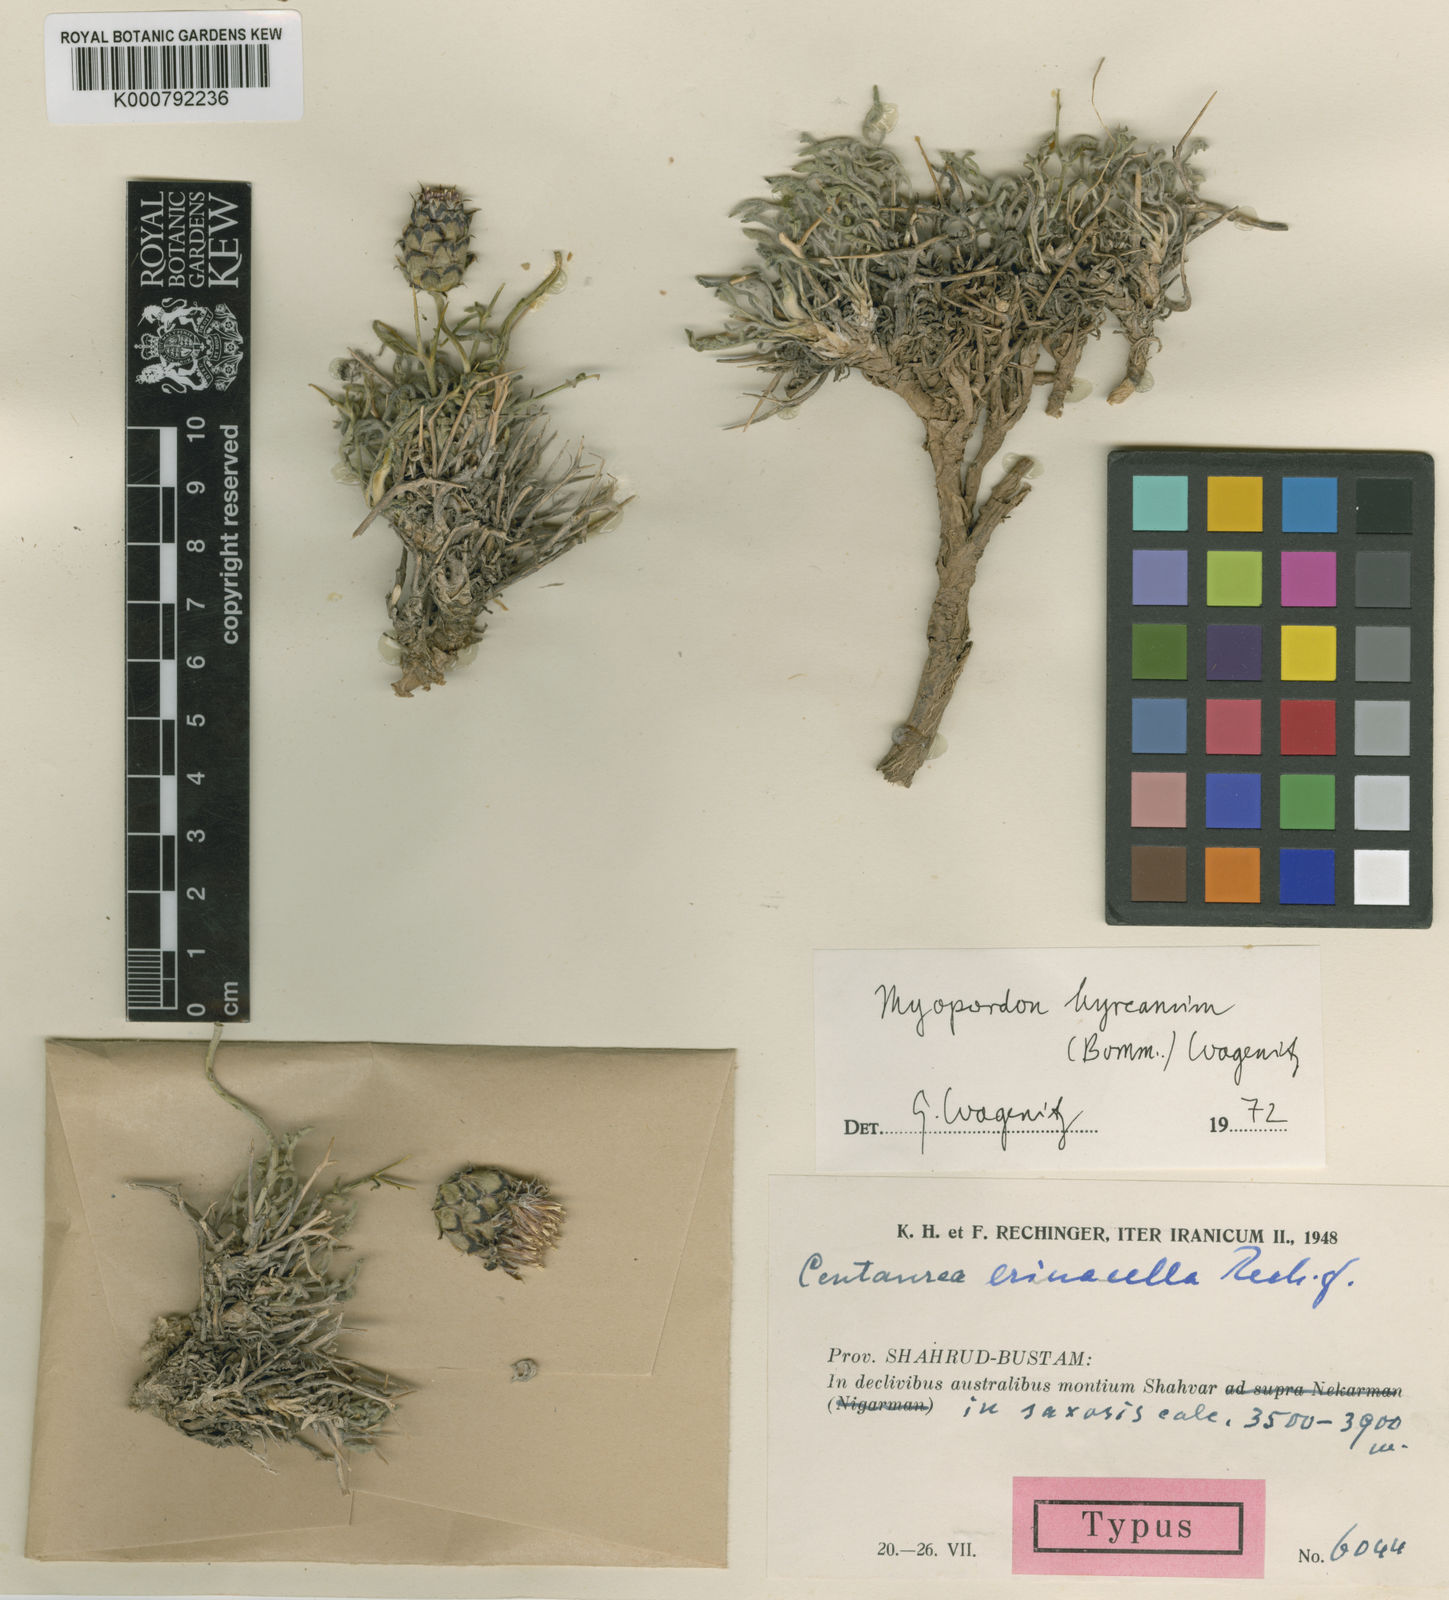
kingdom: Plantae
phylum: Tracheophyta
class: Magnoliopsida
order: Asterales
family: Asteraceae
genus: Myopordon
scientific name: Myopordon hyrcanum
